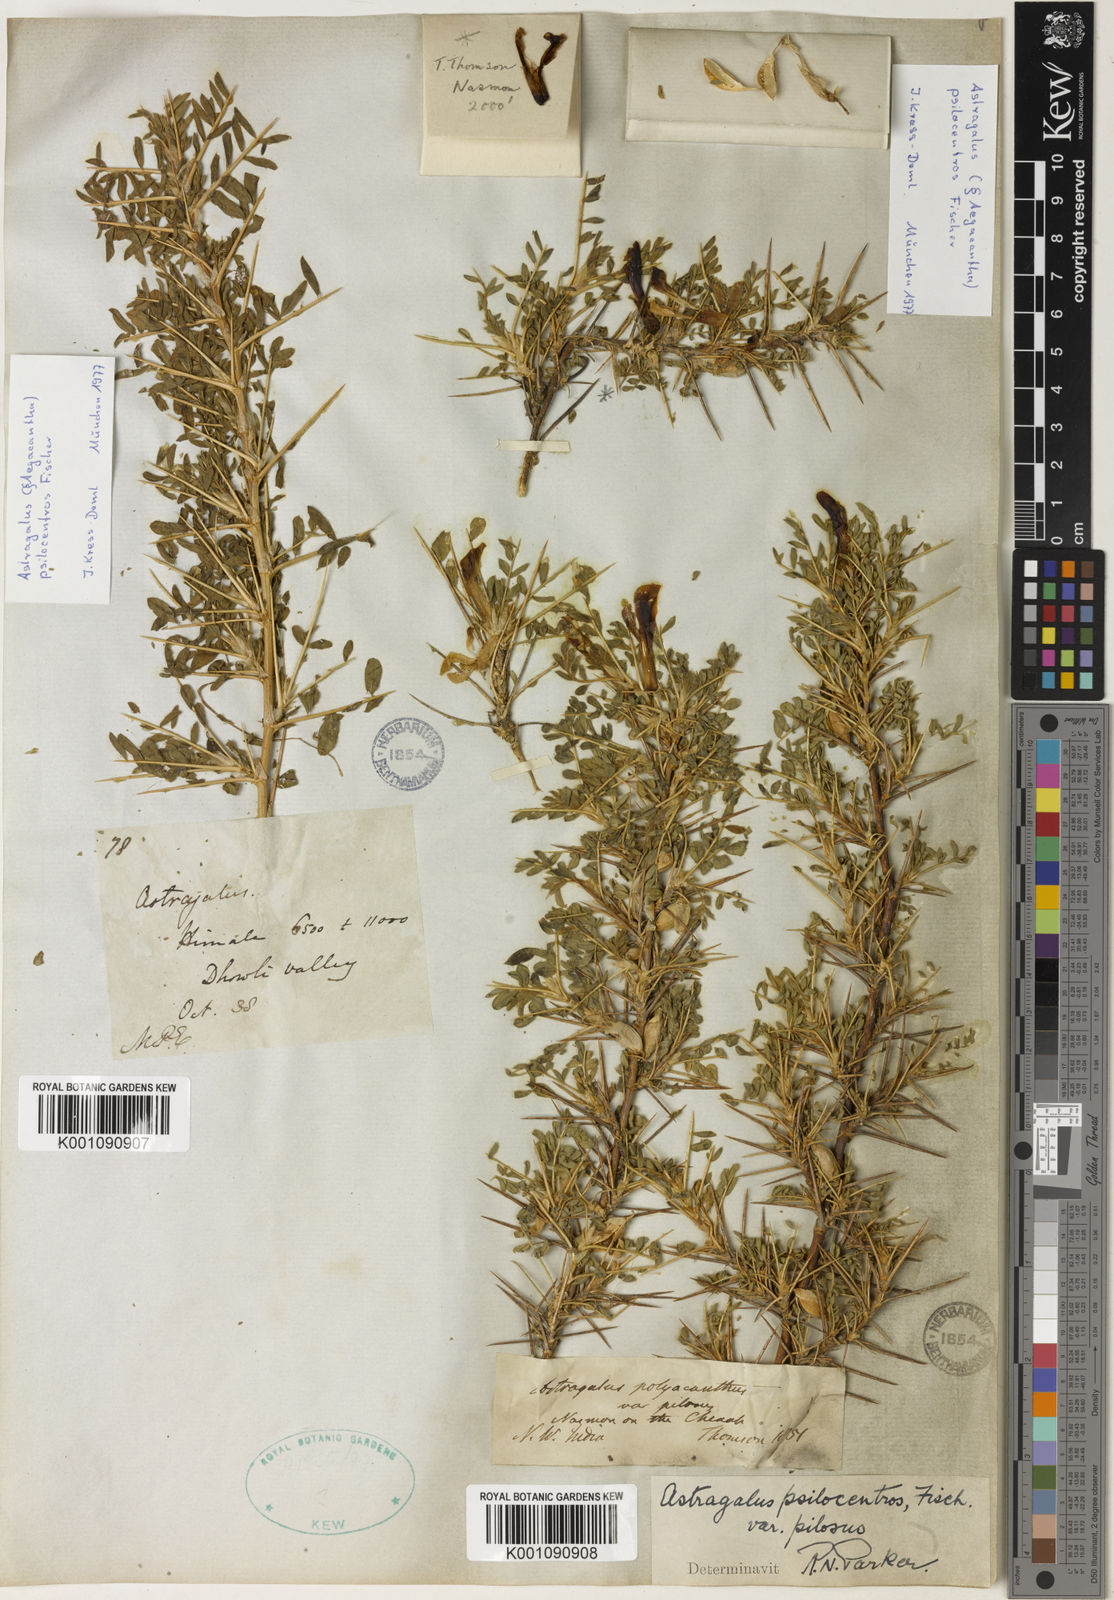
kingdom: Plantae
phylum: Tracheophyta
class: Magnoliopsida
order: Fabales
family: Fabaceae
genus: Astragalus
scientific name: Astragalus psilocentros
